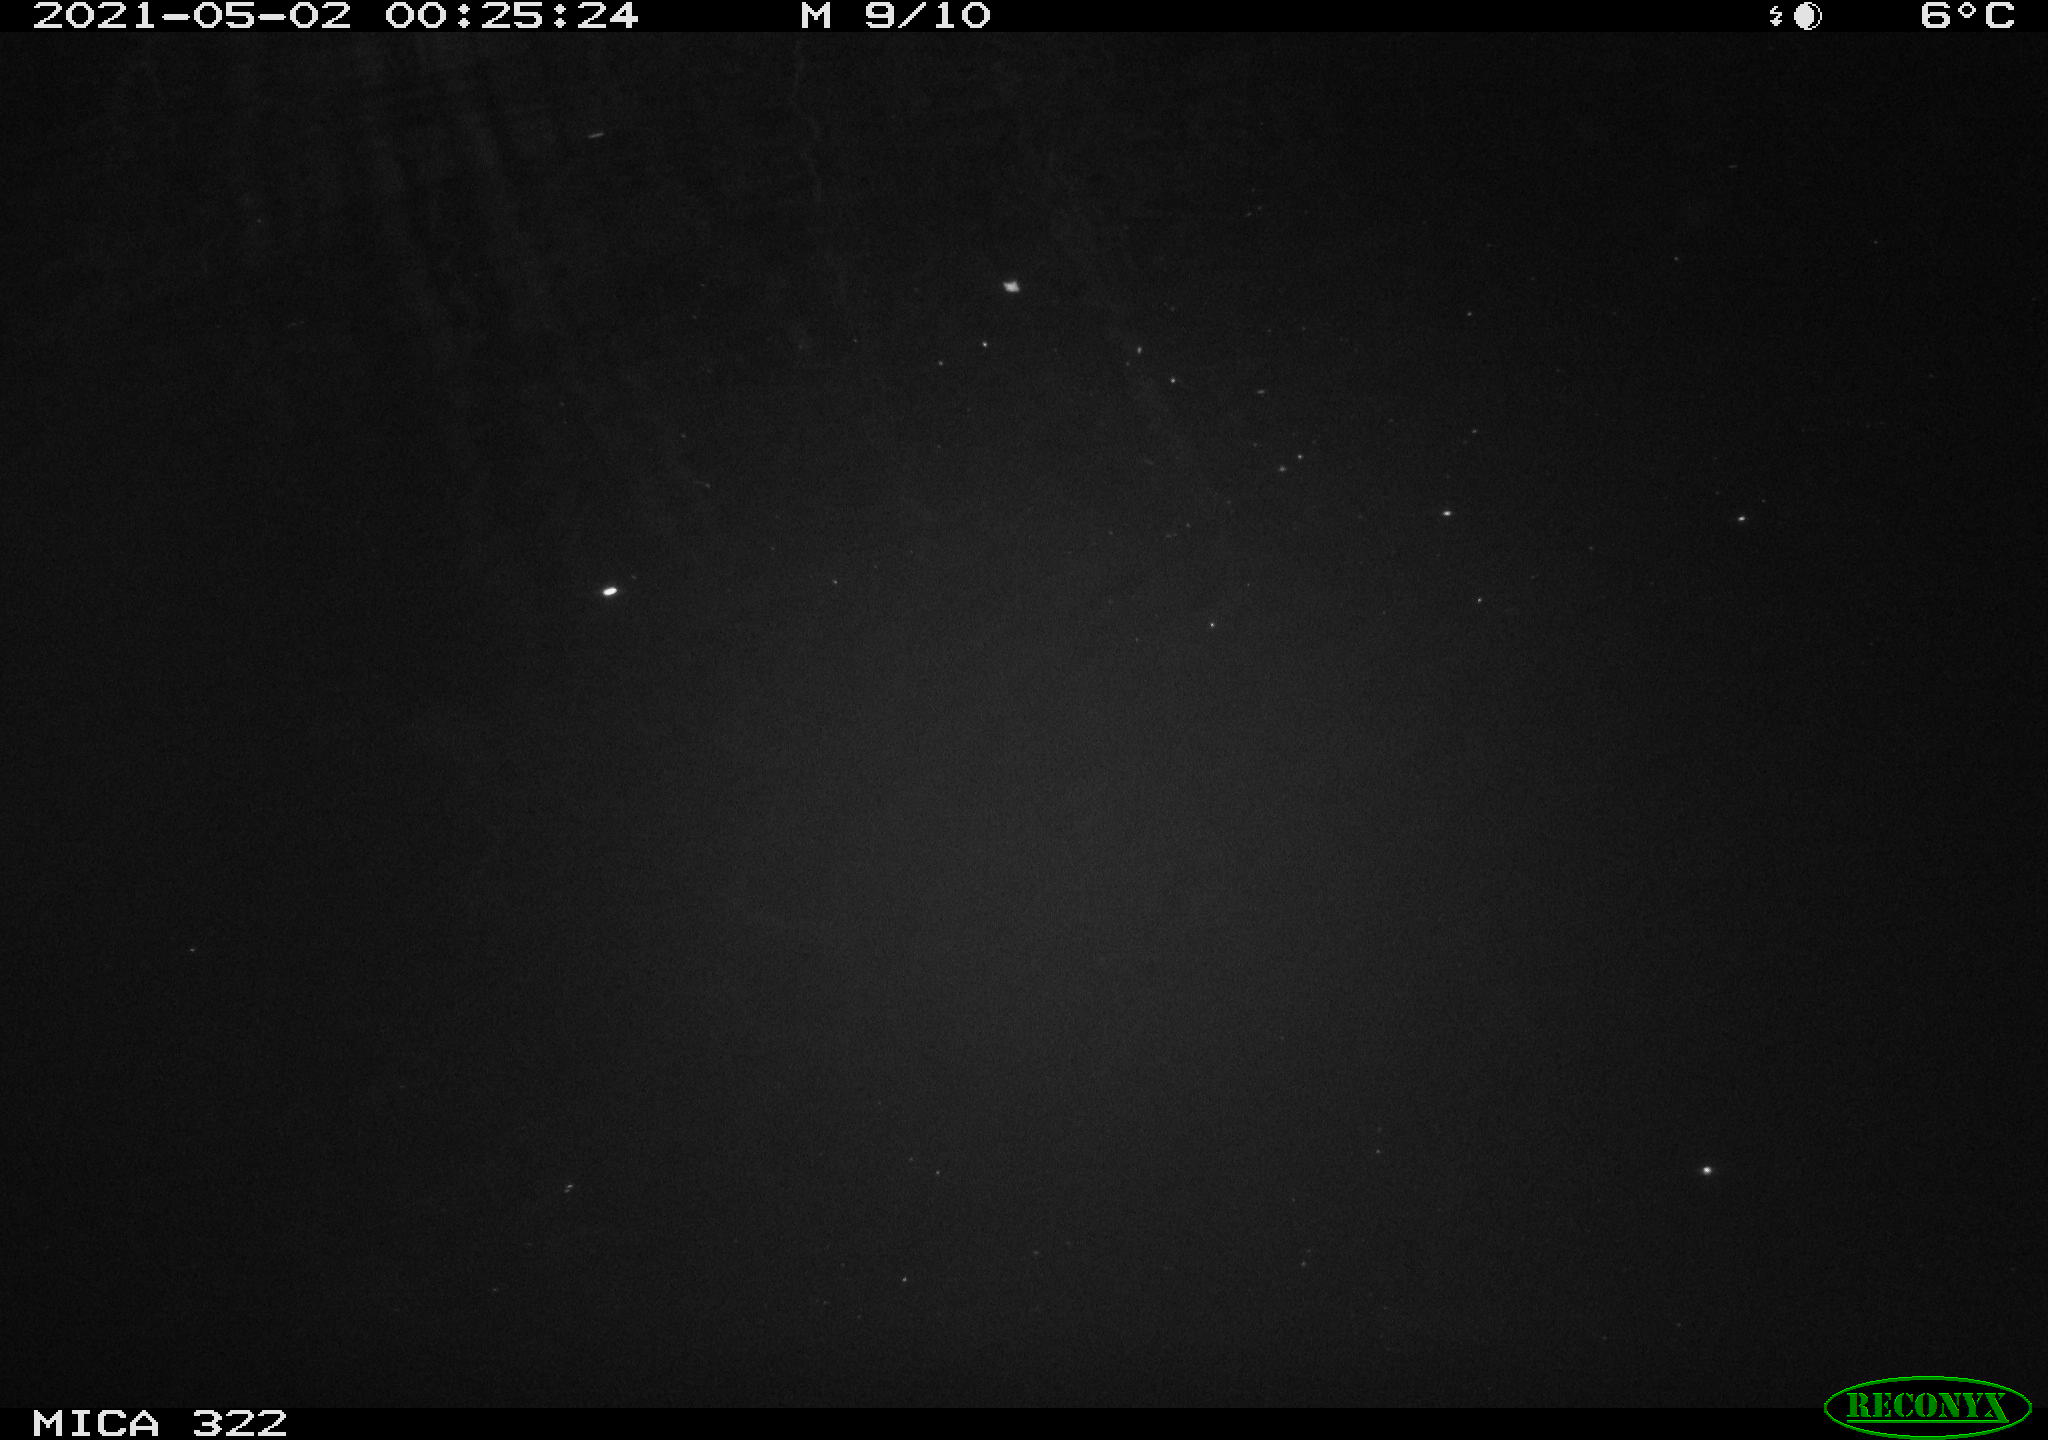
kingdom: Animalia
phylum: Chordata
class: Aves
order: Anseriformes
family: Anatidae
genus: Anas
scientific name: Anas platyrhynchos
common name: Mallard
